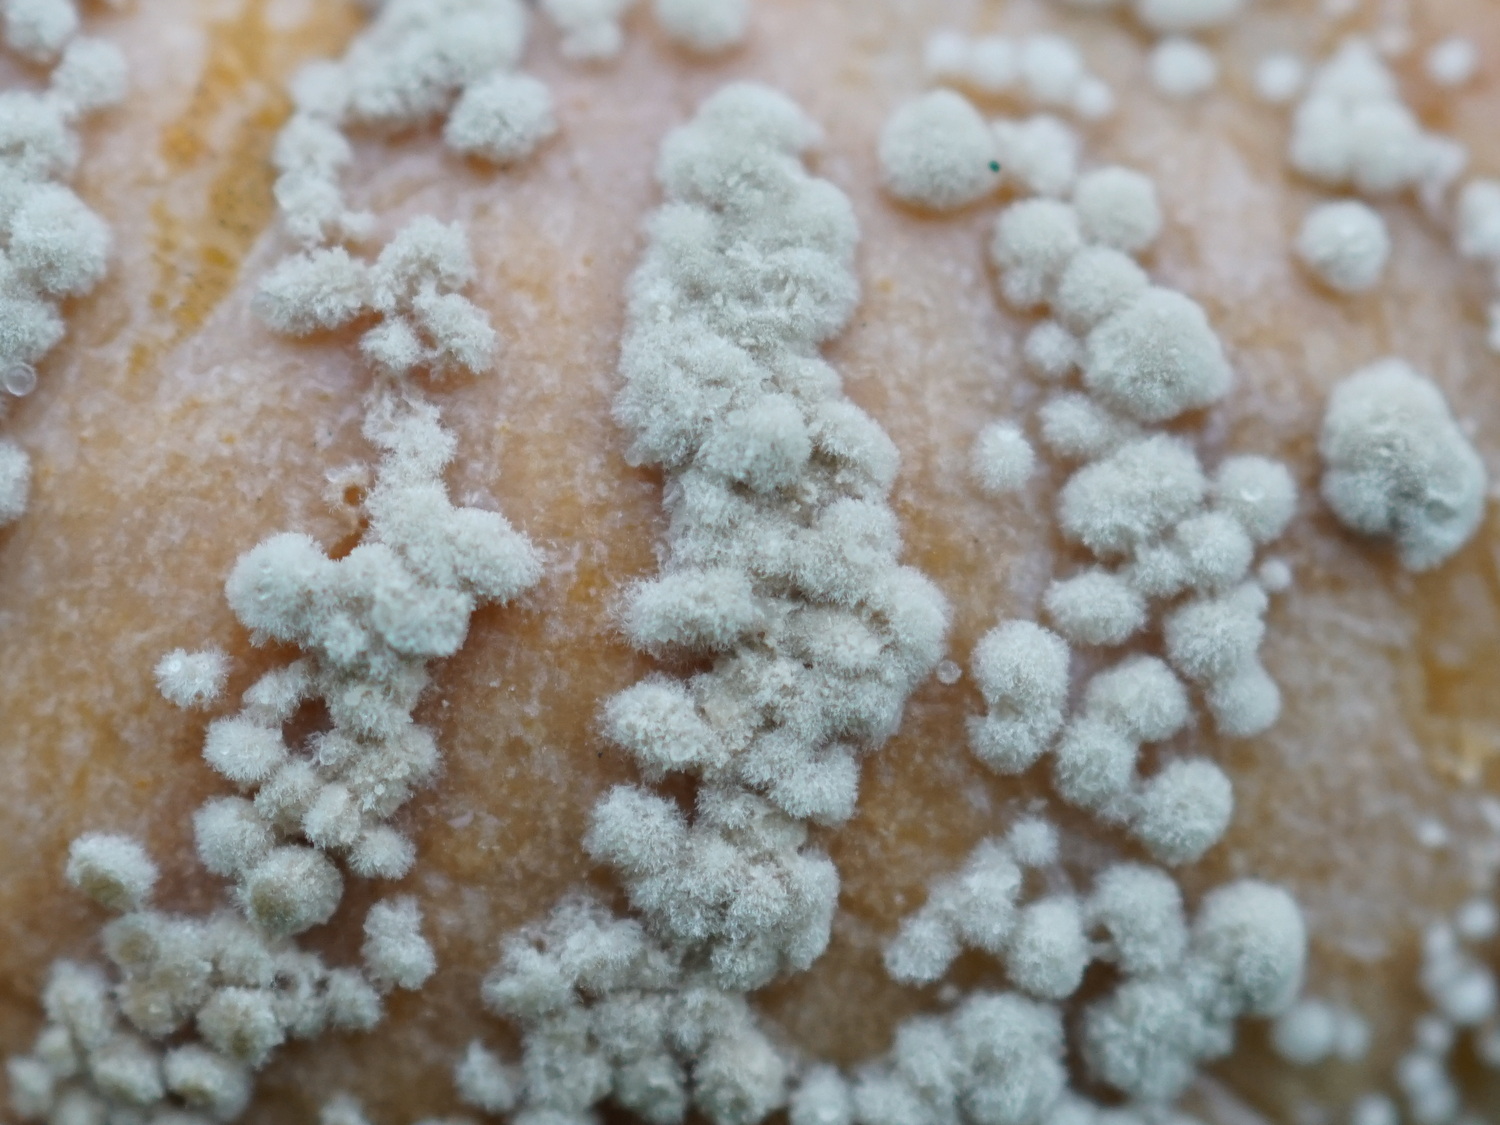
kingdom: Fungi
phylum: Ascomycota
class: Eurotiomycetes
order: Eurotiales
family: Aspergillaceae
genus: Penicillium
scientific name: Penicillium
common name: penselskimmel
